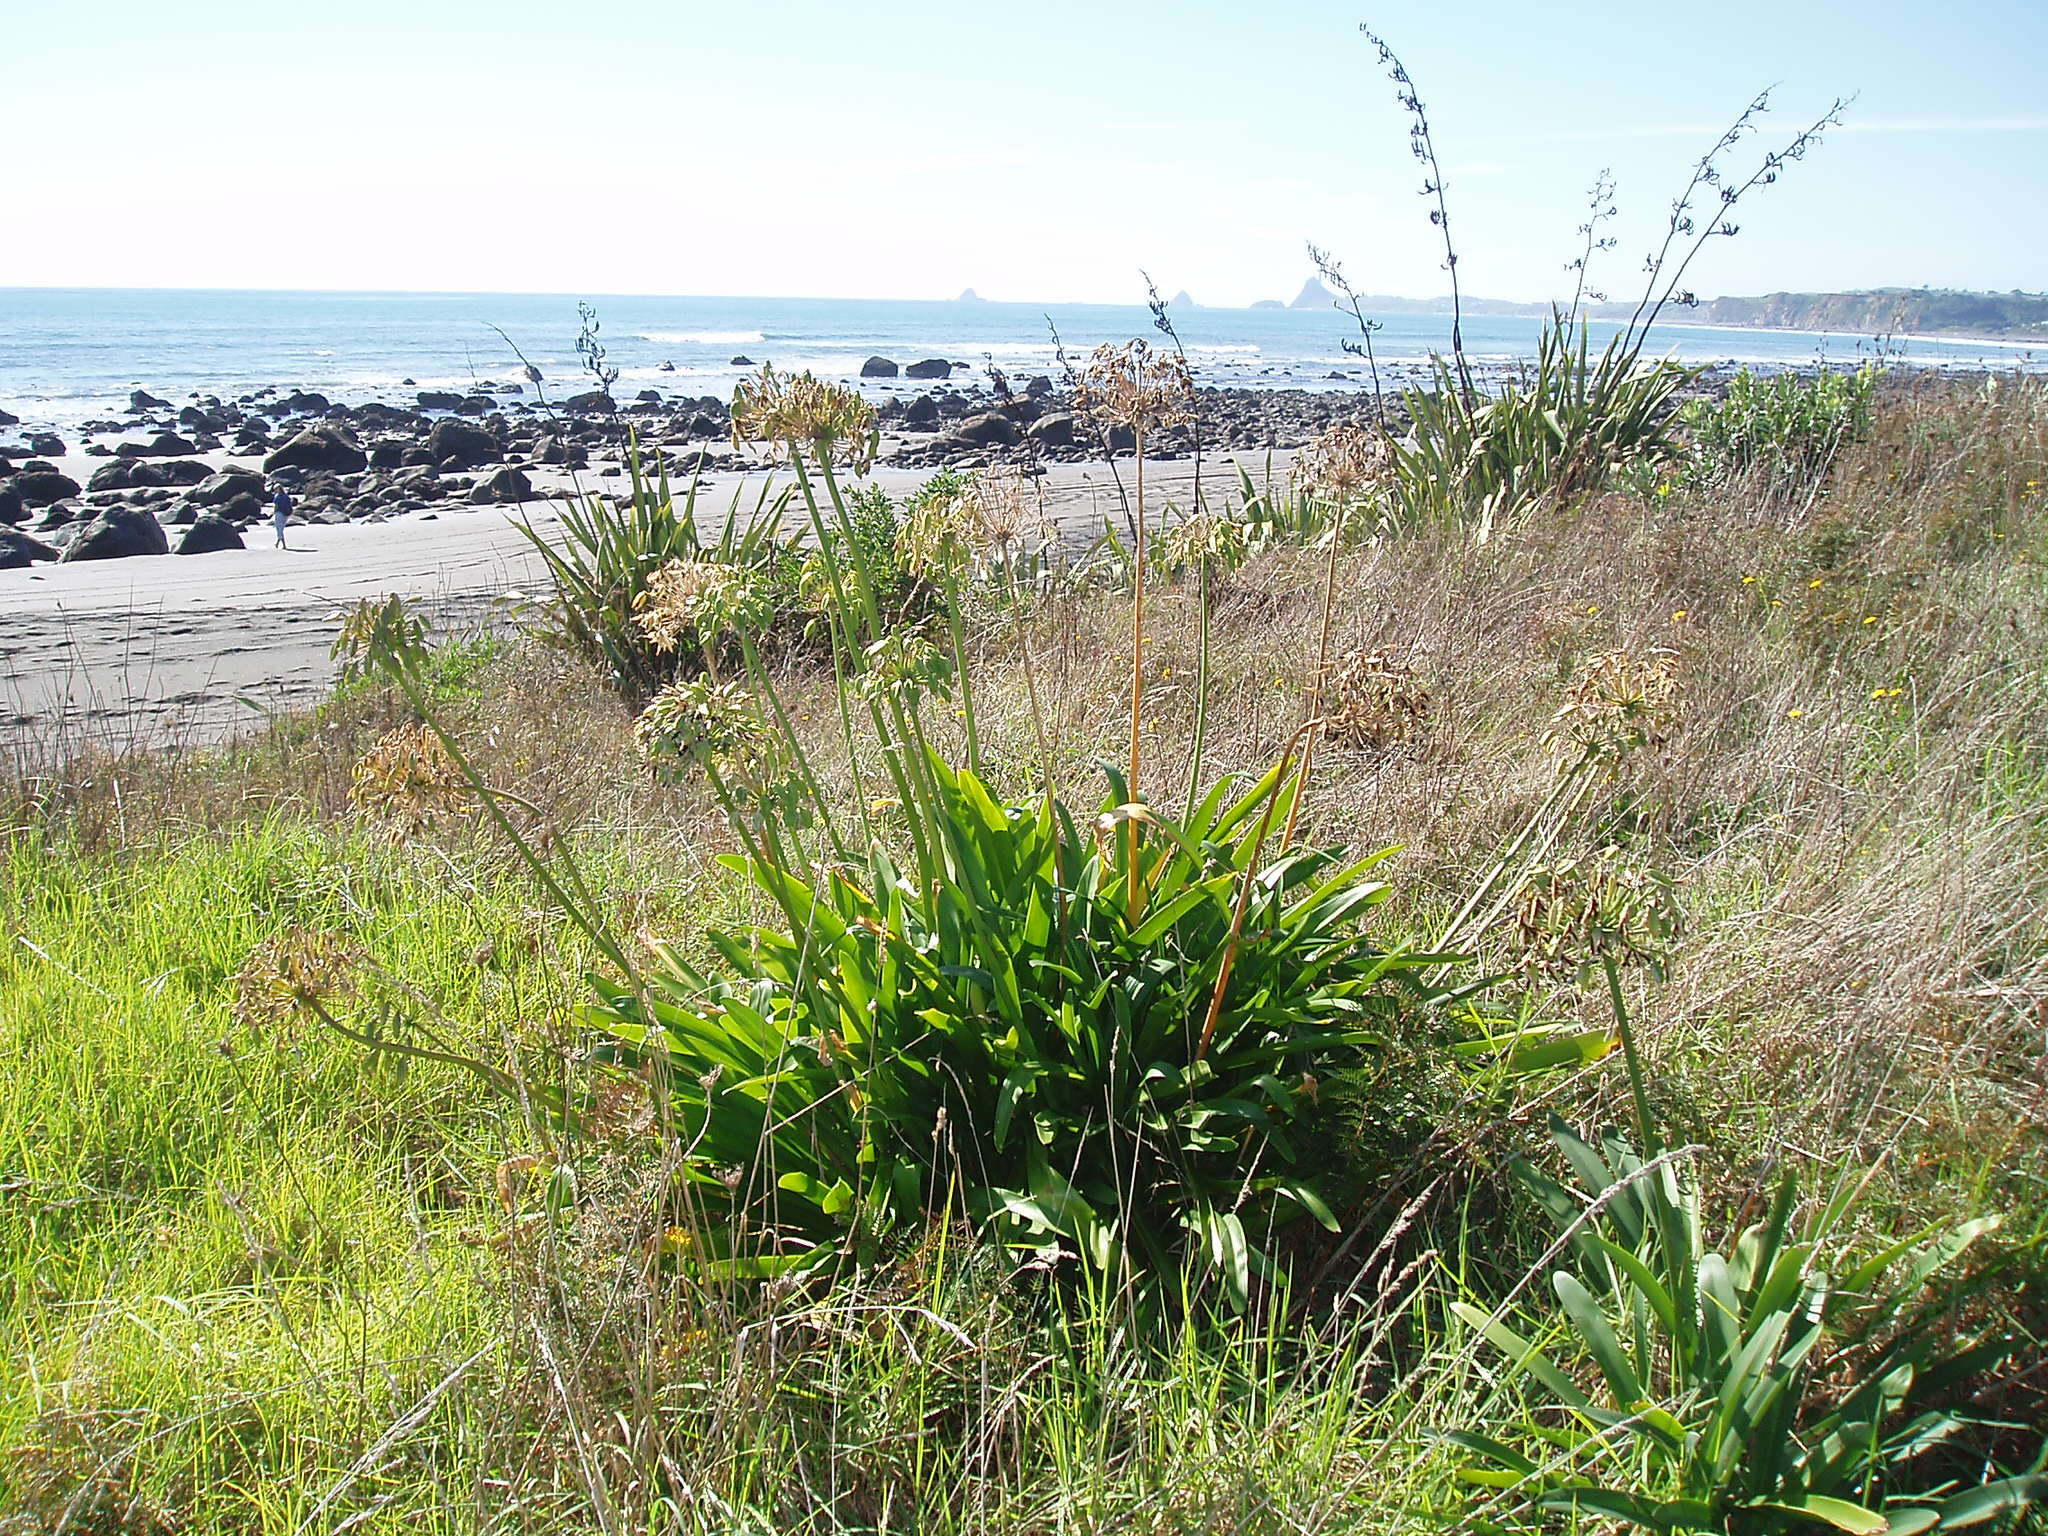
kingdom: Plantae
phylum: Tracheophyta
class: Liliopsida
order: Asparagales
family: Amaryllidaceae
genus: Agapanthus
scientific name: Agapanthus praecox
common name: African-lily
